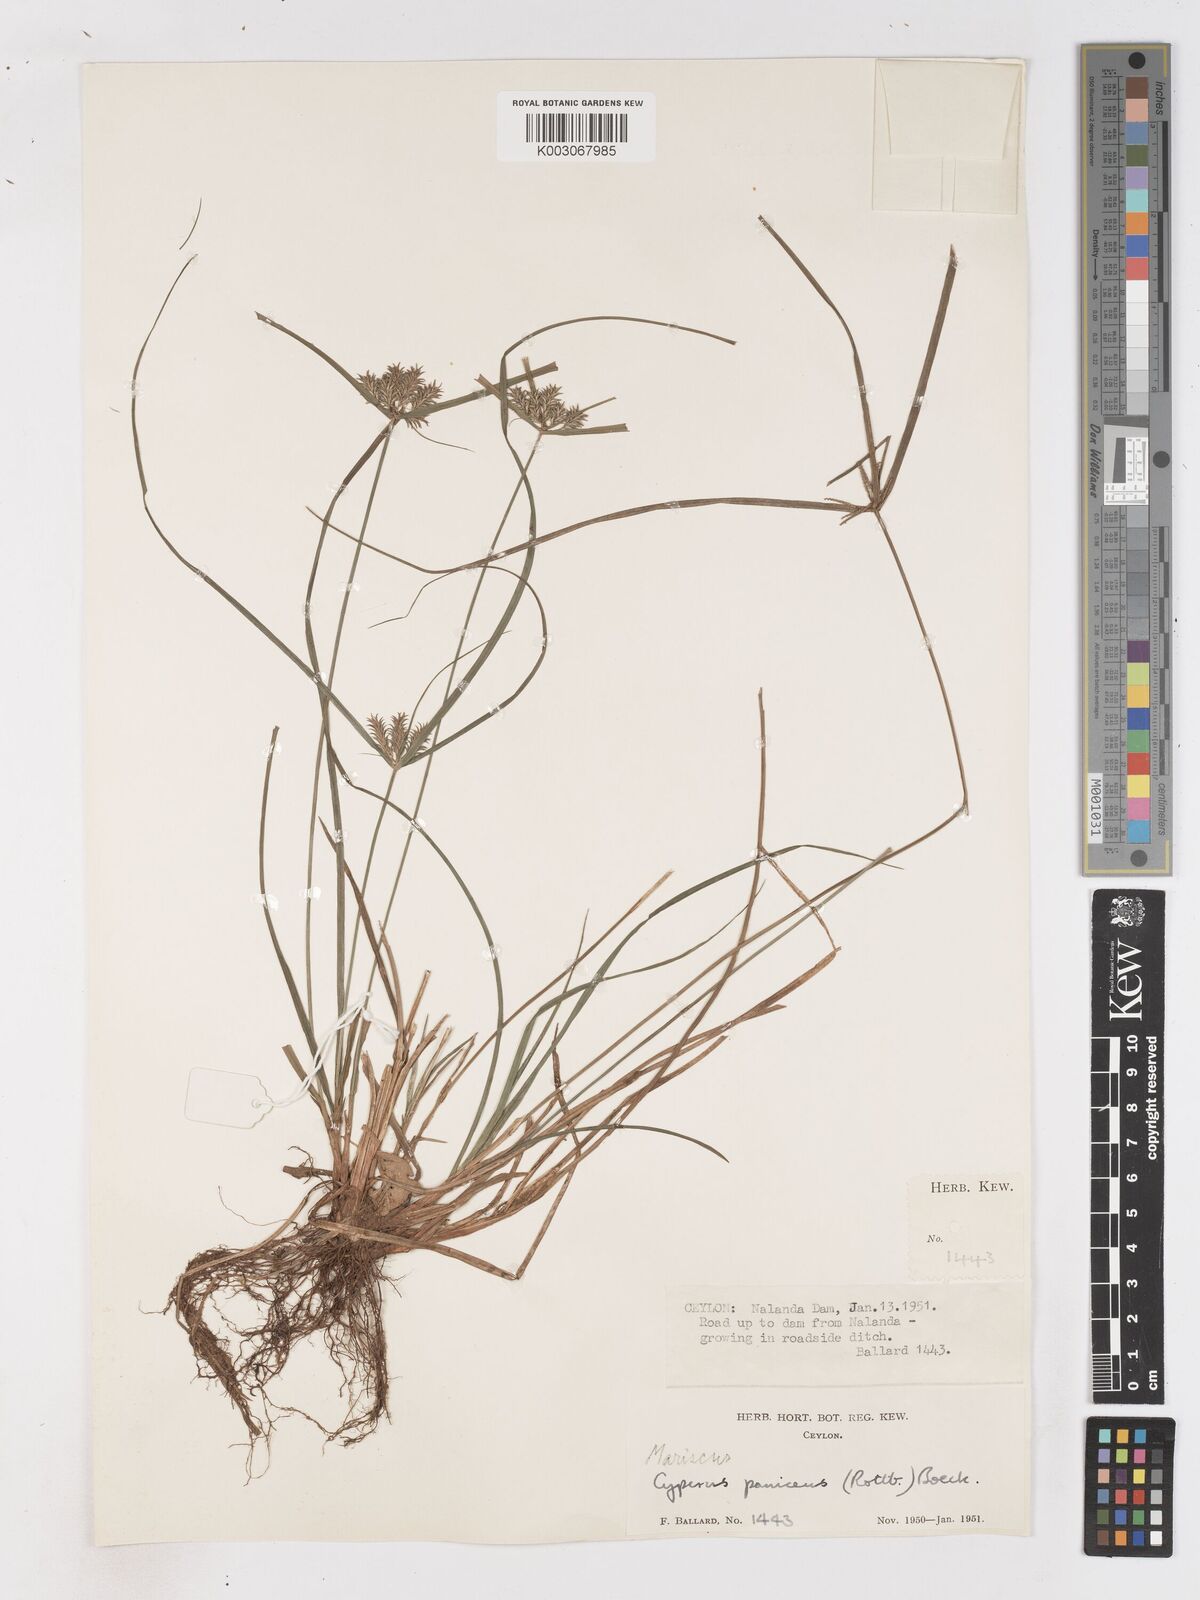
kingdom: Plantae
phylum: Tracheophyta
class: Liliopsida
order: Poales
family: Cyperaceae
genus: Cyperus
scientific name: Cyperus paniceus
